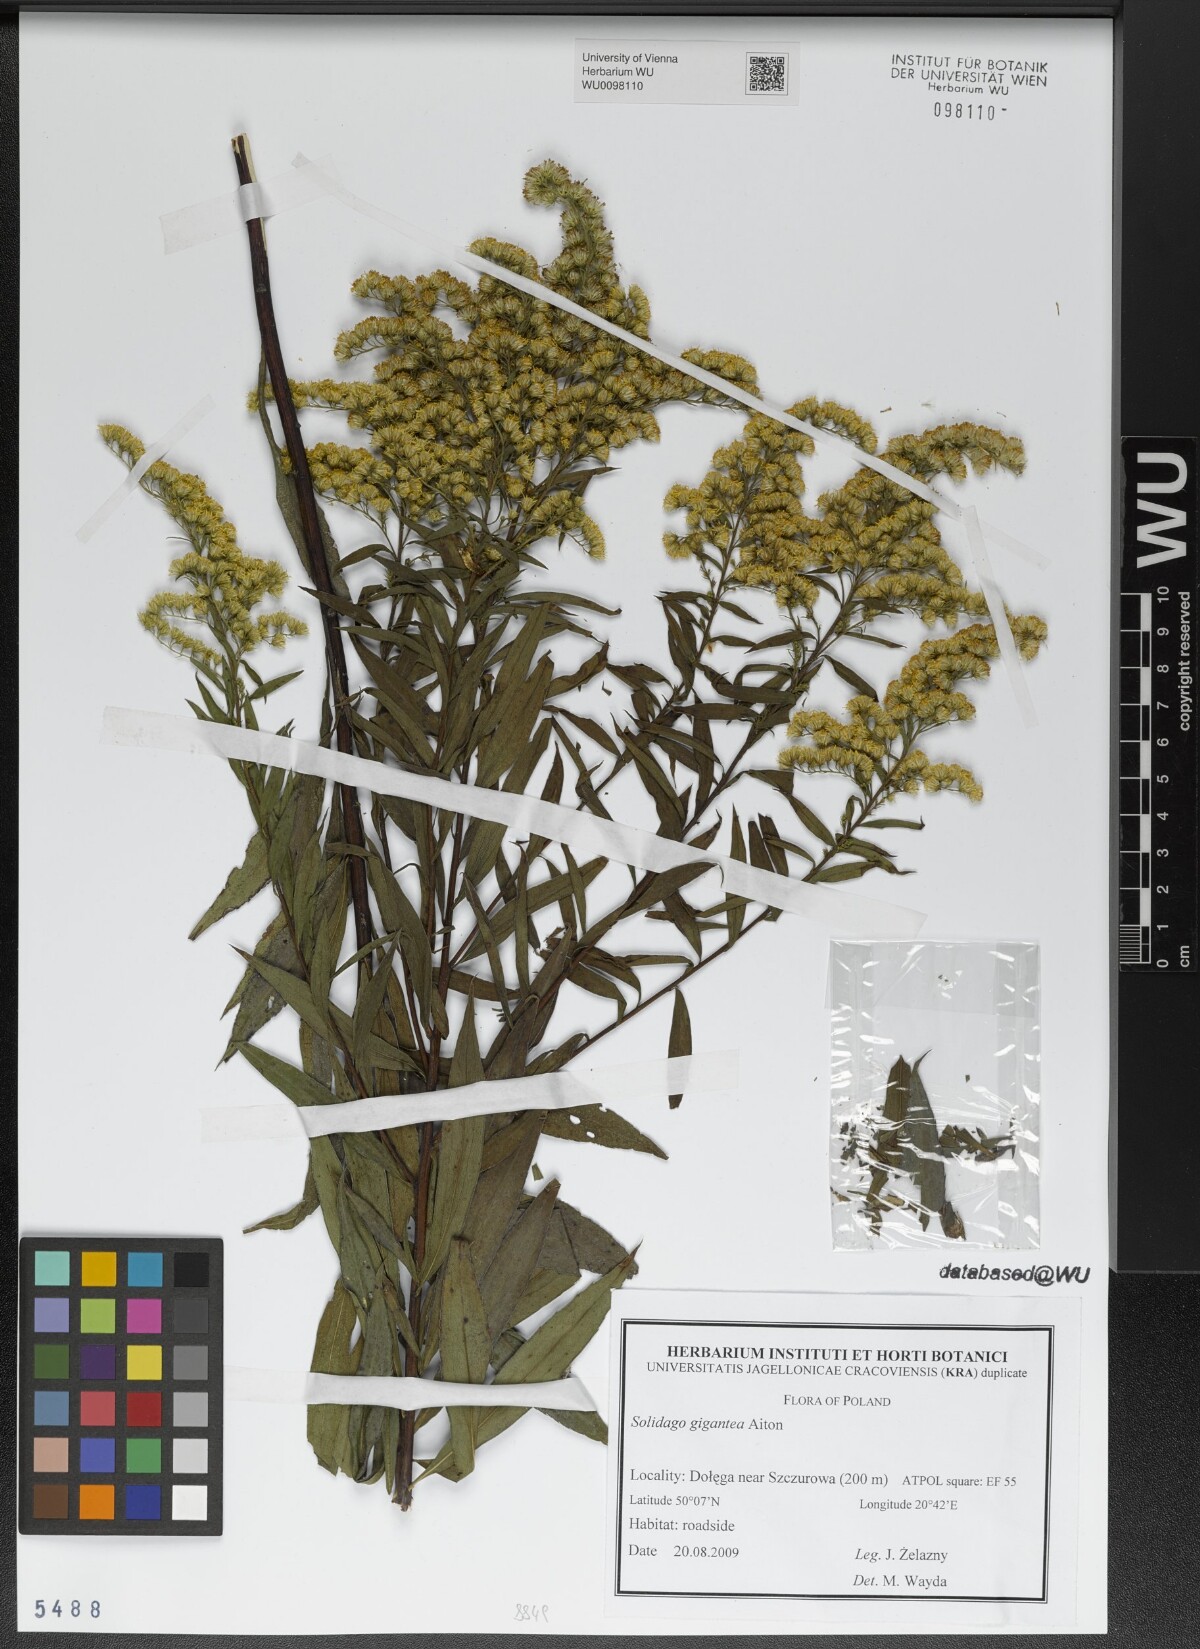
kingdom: Plantae
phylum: Tracheophyta
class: Magnoliopsida
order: Asterales
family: Asteraceae
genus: Solidago
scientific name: Solidago gigantea
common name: Giant goldenrod
